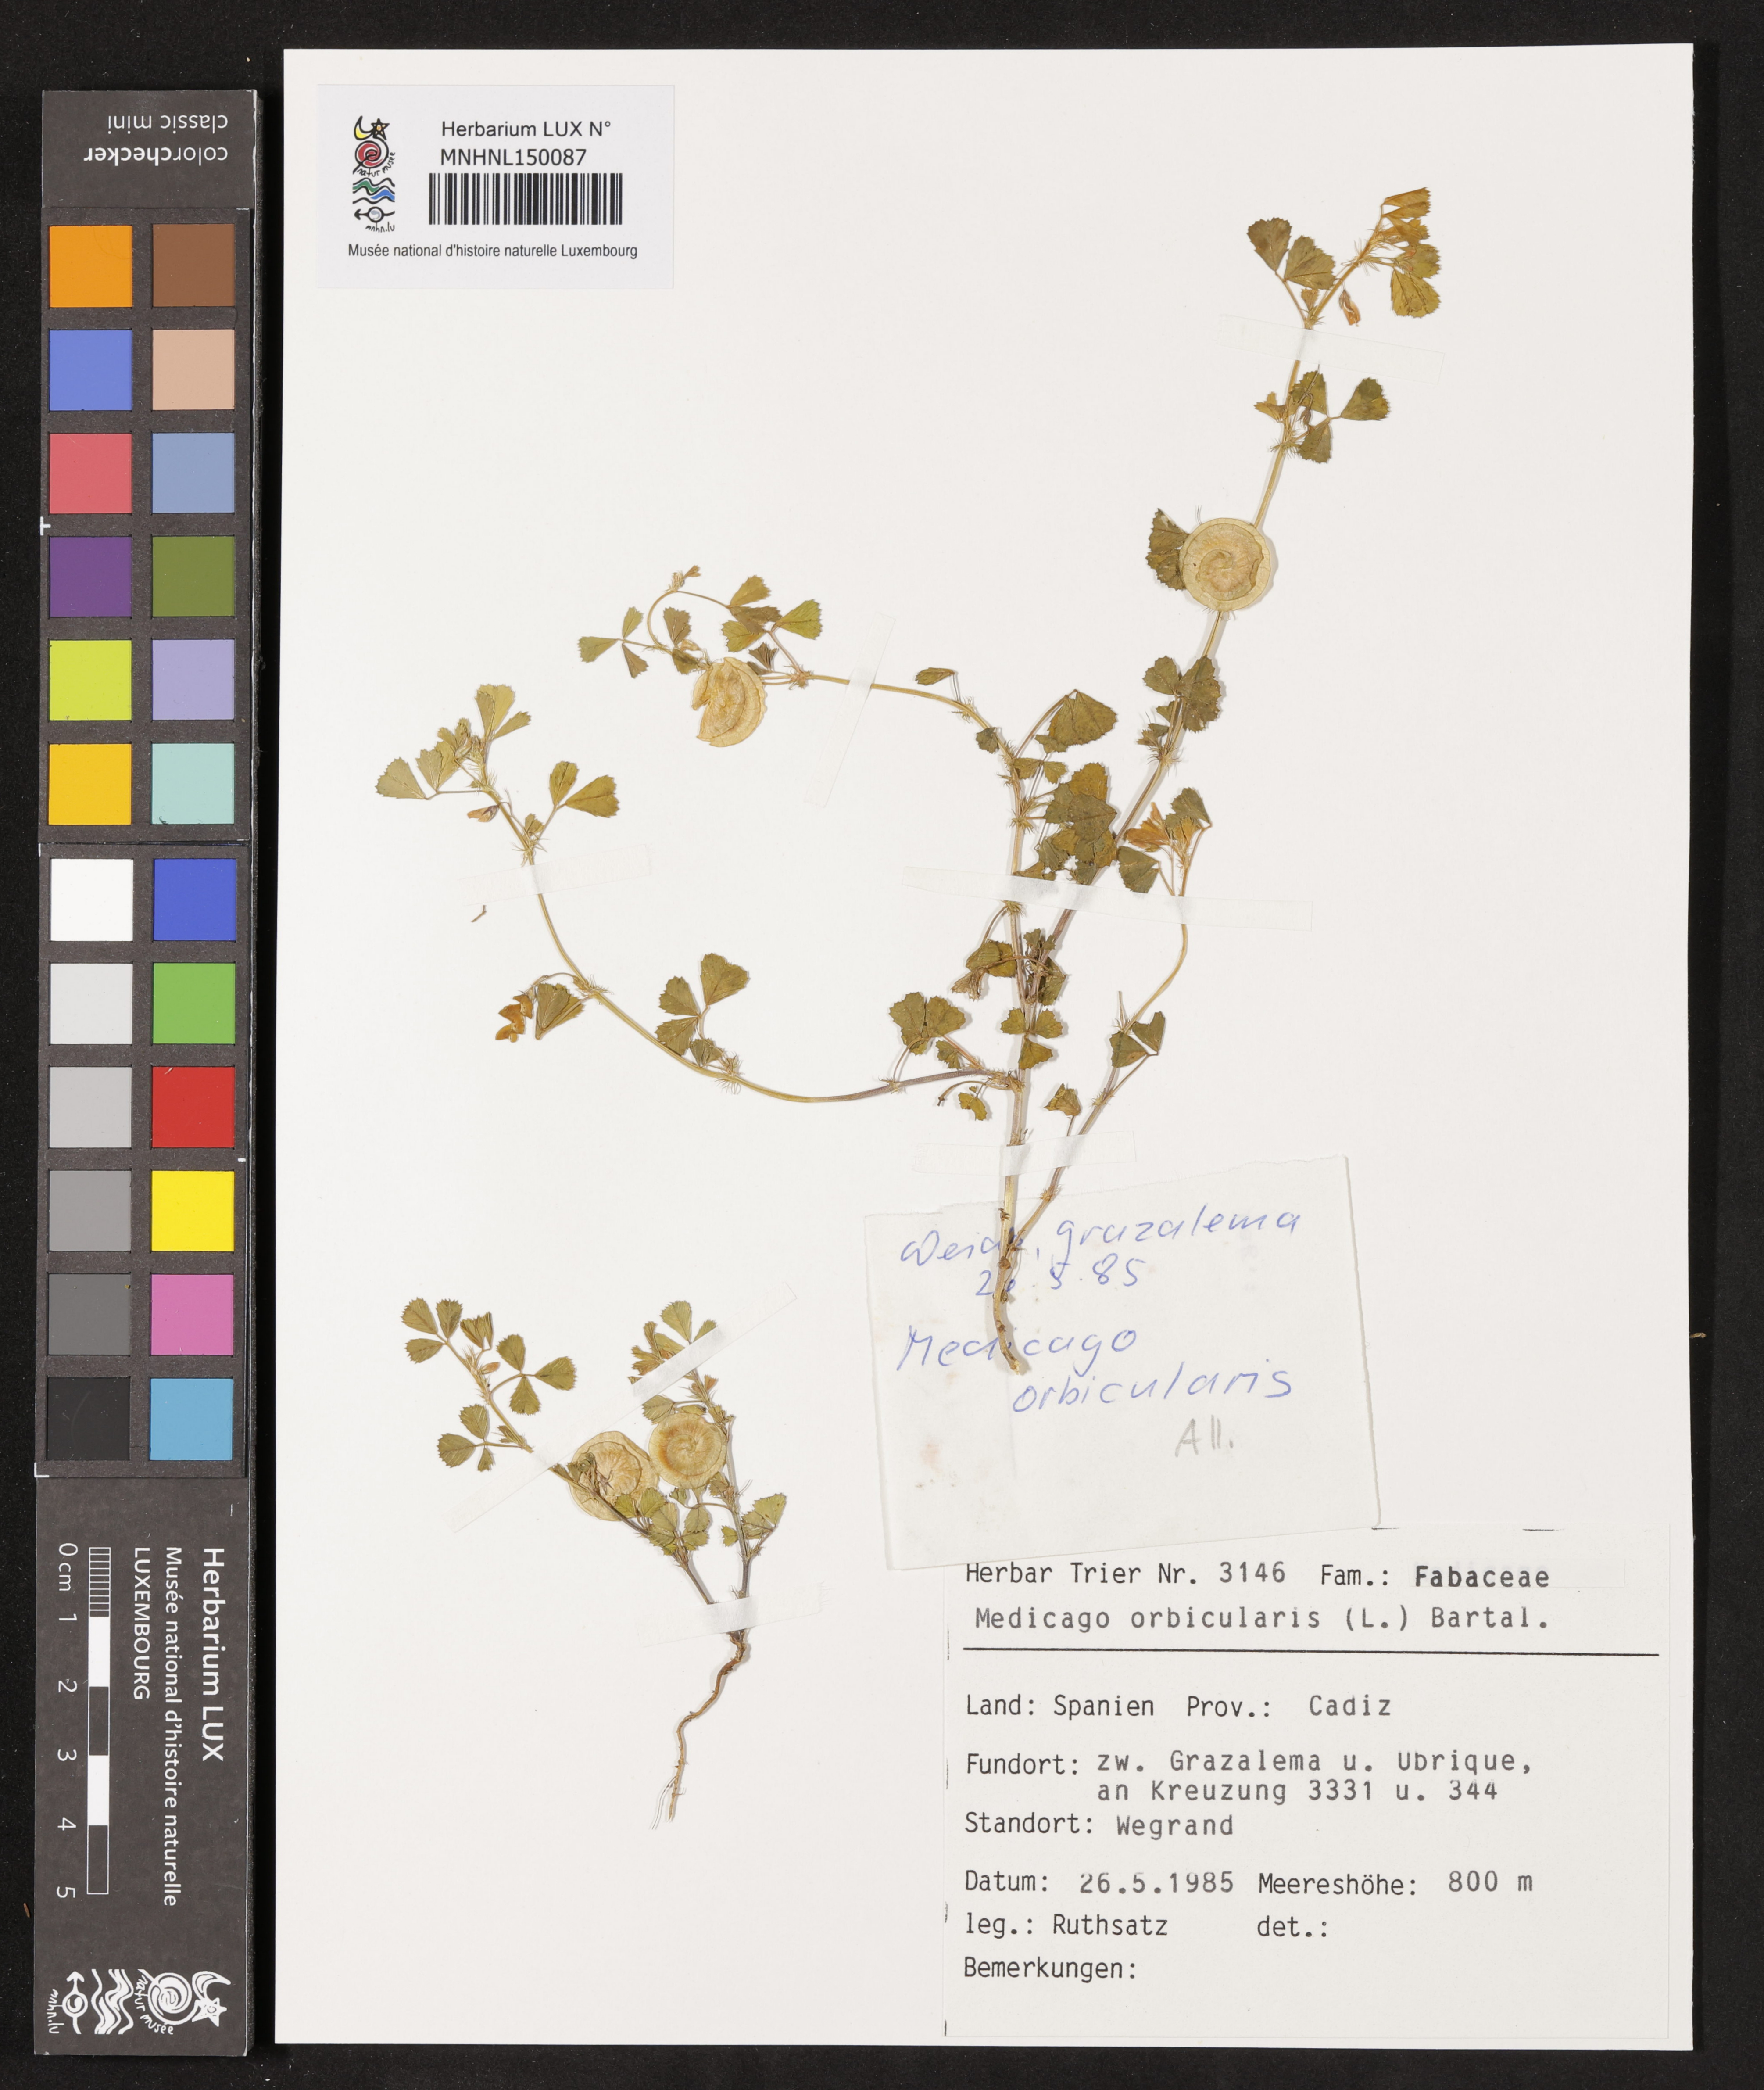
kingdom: Plantae
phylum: Tracheophyta
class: Magnoliopsida
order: Fabales
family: Fabaceae
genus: Medicago
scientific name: Medicago orbicularis
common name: Button medick
